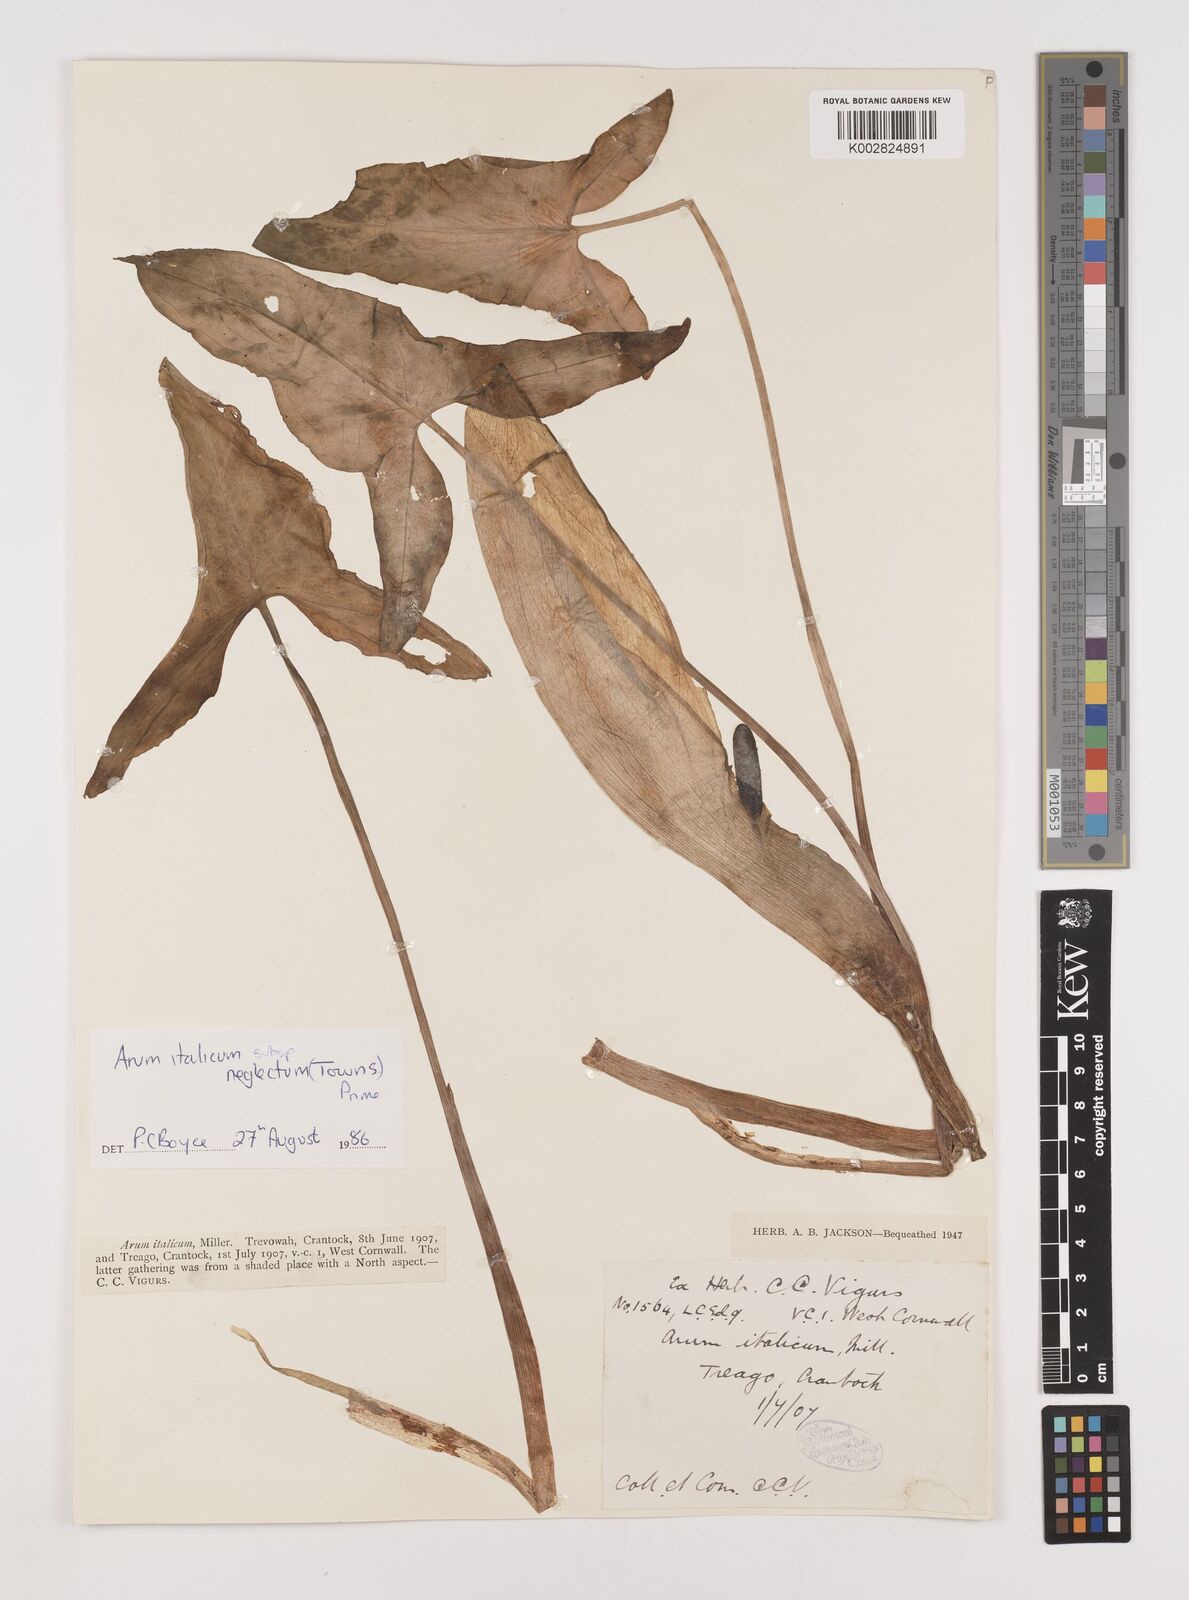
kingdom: Plantae
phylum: Tracheophyta
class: Liliopsida
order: Alismatales
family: Araceae
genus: Arum
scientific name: Arum italicum
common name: Italian lords-and-ladies
